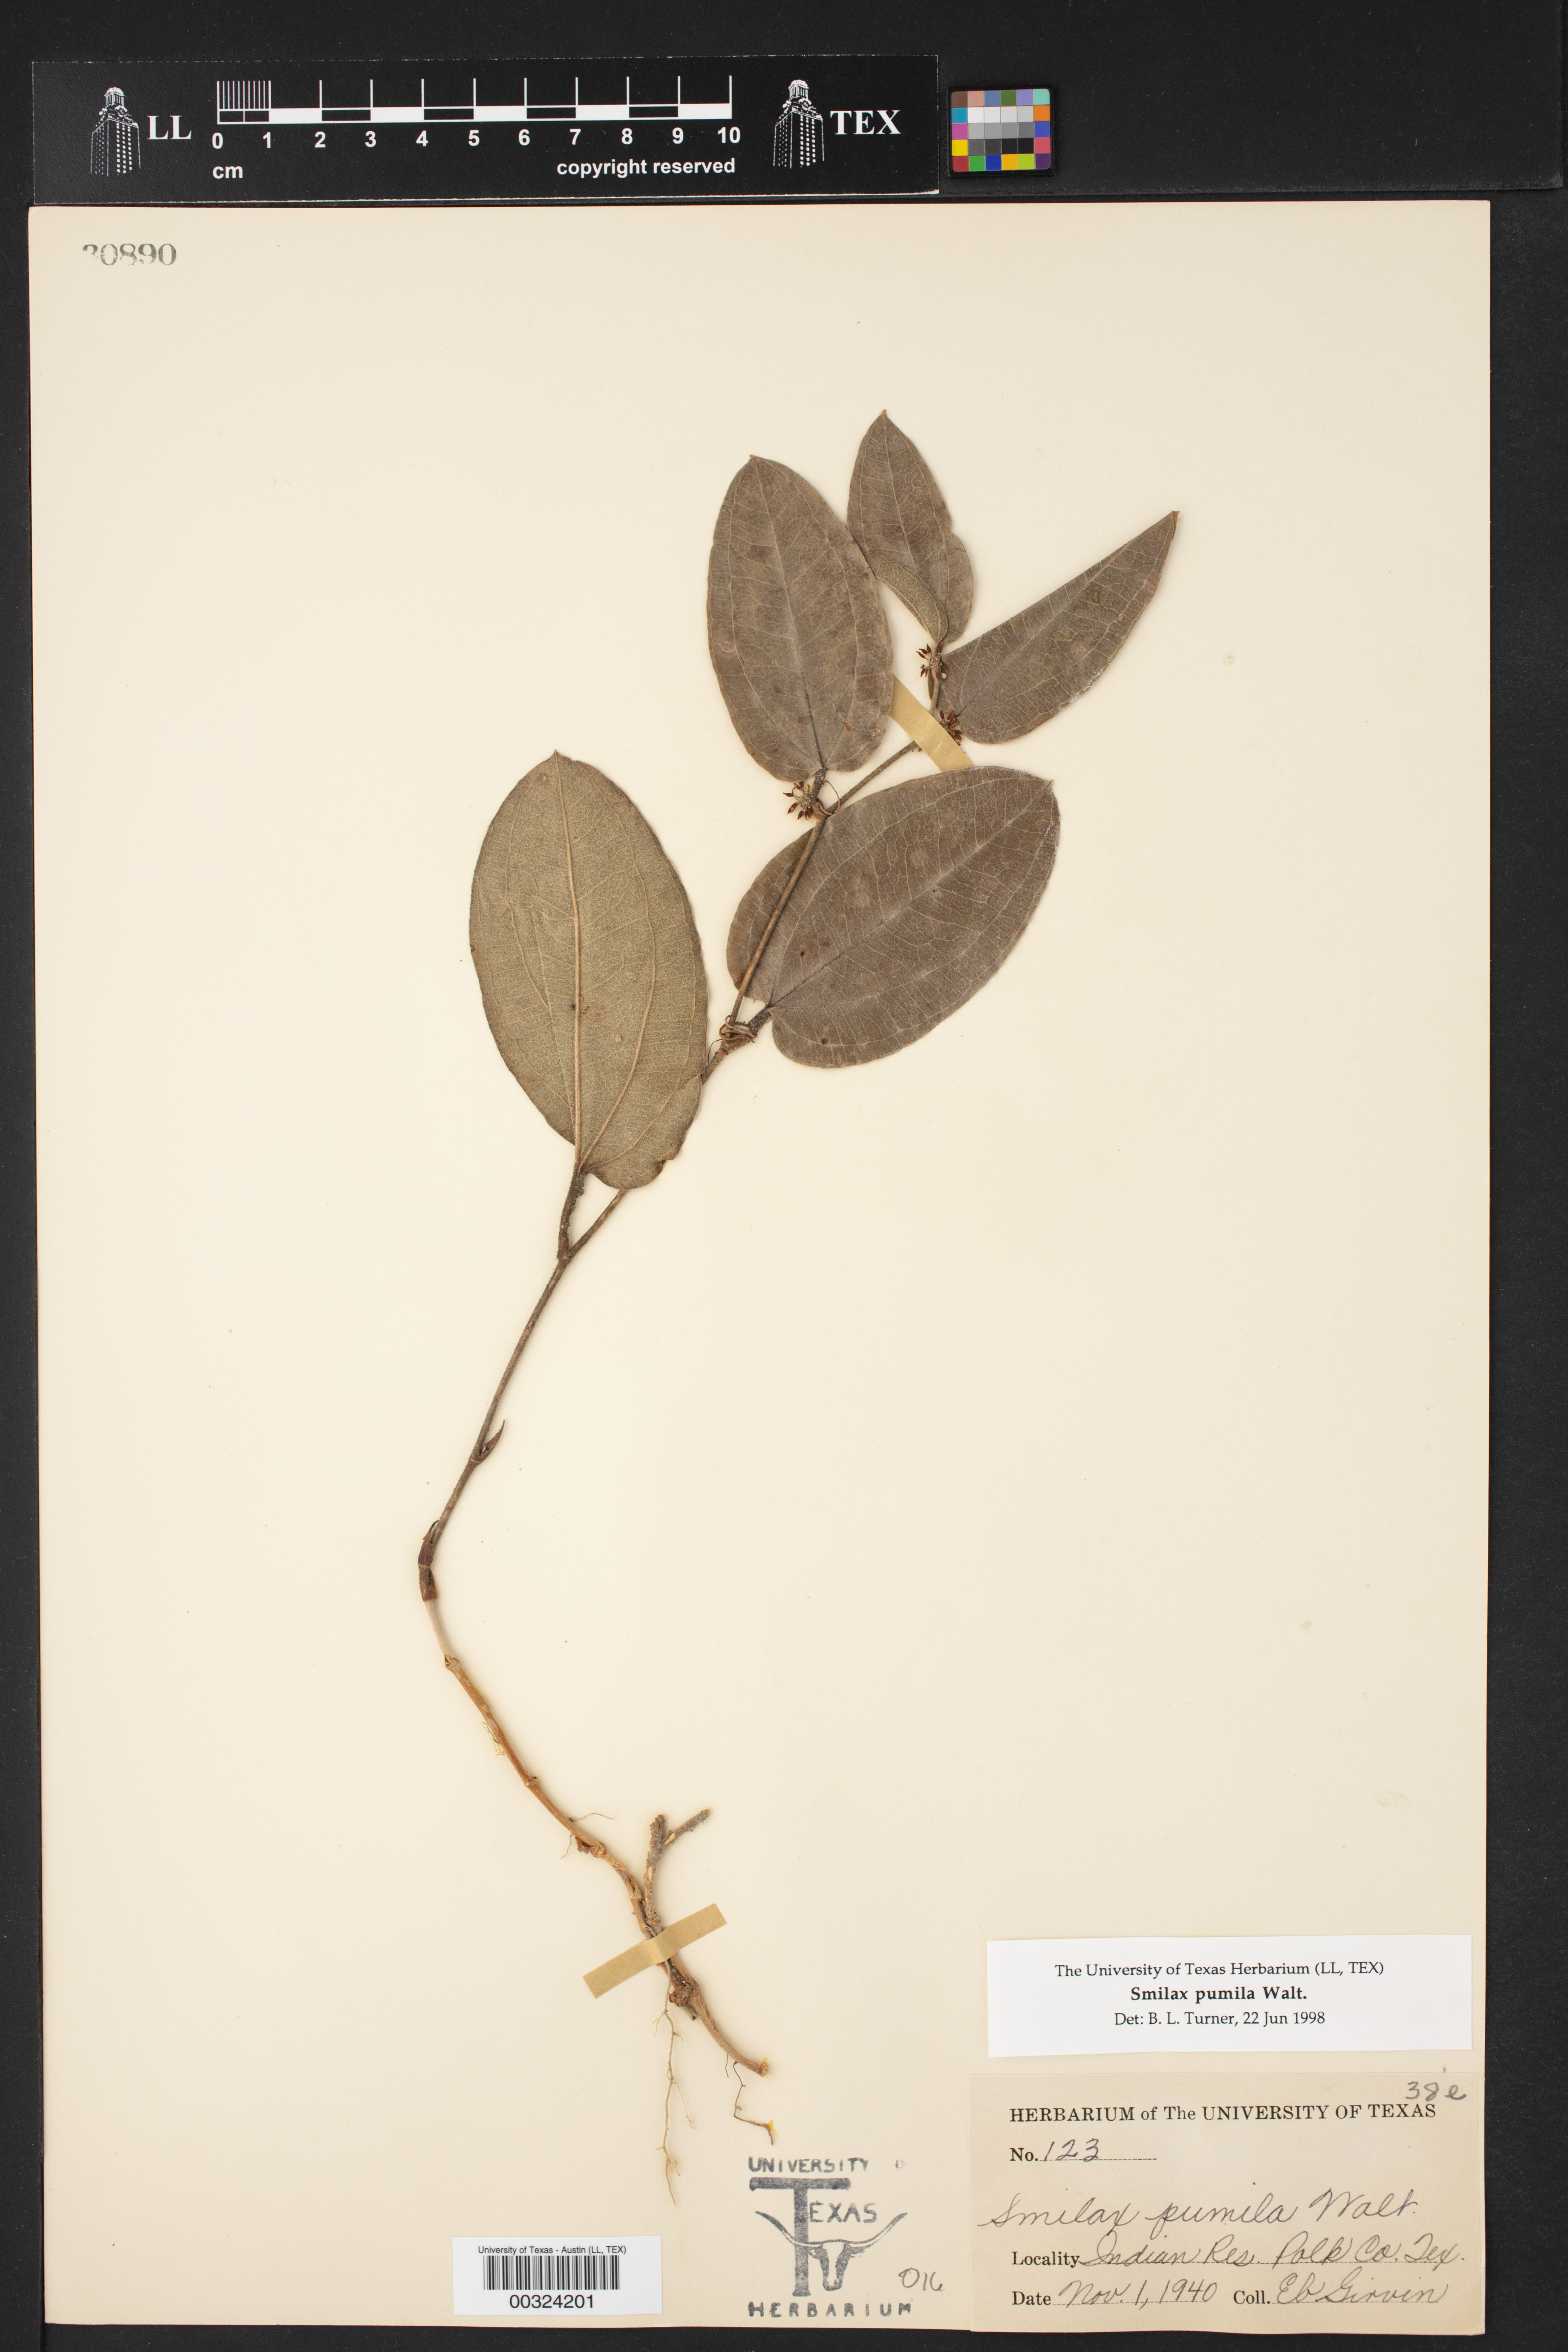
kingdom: Plantae
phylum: Tracheophyta
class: Liliopsida
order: Liliales
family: Smilacaceae
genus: Smilax
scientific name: Smilax pumila
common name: Sarsaparilla-vine
